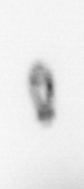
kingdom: Animalia
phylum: Arthropoda
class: Copepoda
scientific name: Copepoda
